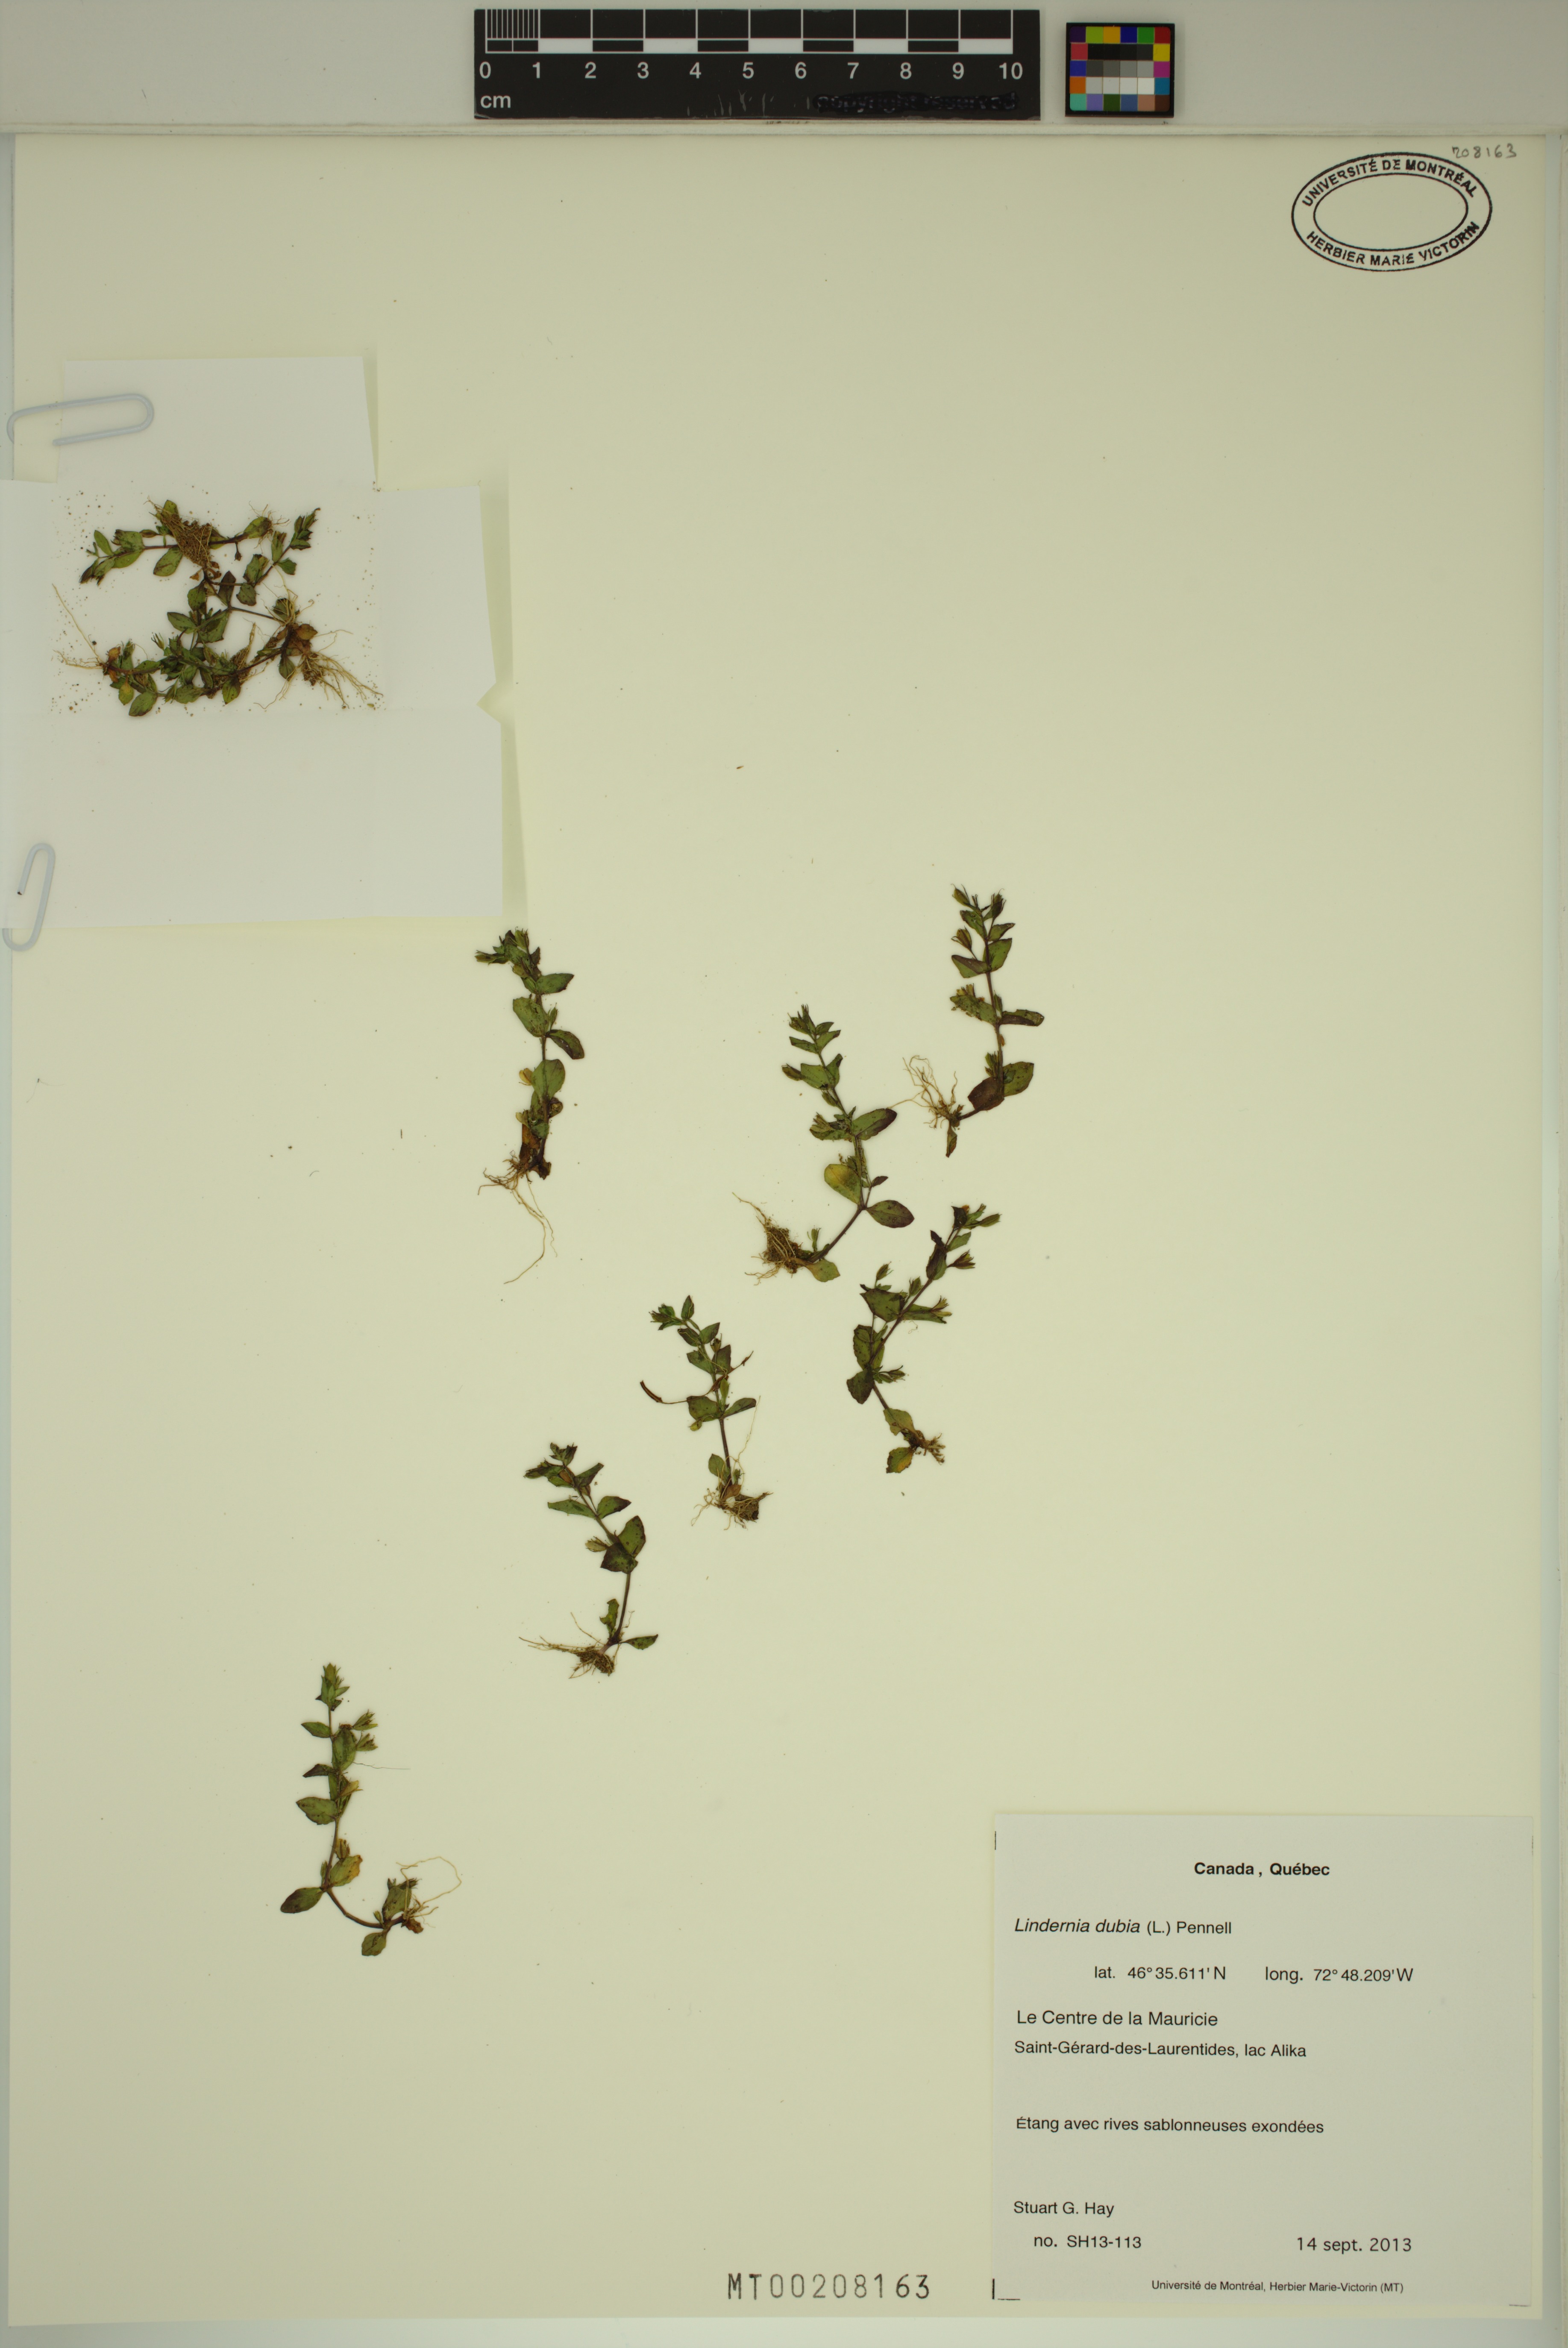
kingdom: Plantae
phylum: Tracheophyta
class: Magnoliopsida
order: Lamiales
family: Linderniaceae
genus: Lindernia
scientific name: Lindernia dubia
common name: Annual false pimpernel
